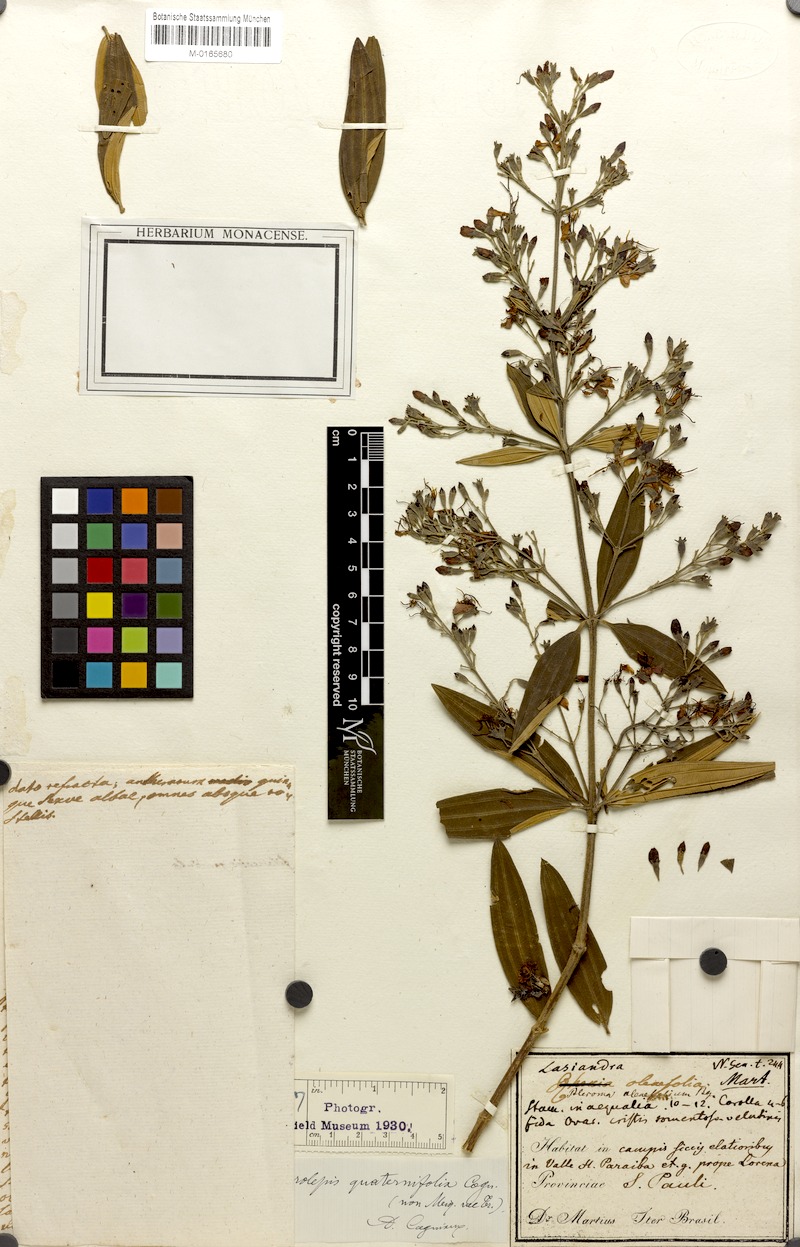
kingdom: Plantae
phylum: Tracheophyta
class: Magnoliopsida
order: Myrtales
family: Melastomataceae
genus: Pleroma
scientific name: Pleroma Microlepis quaternifolia
